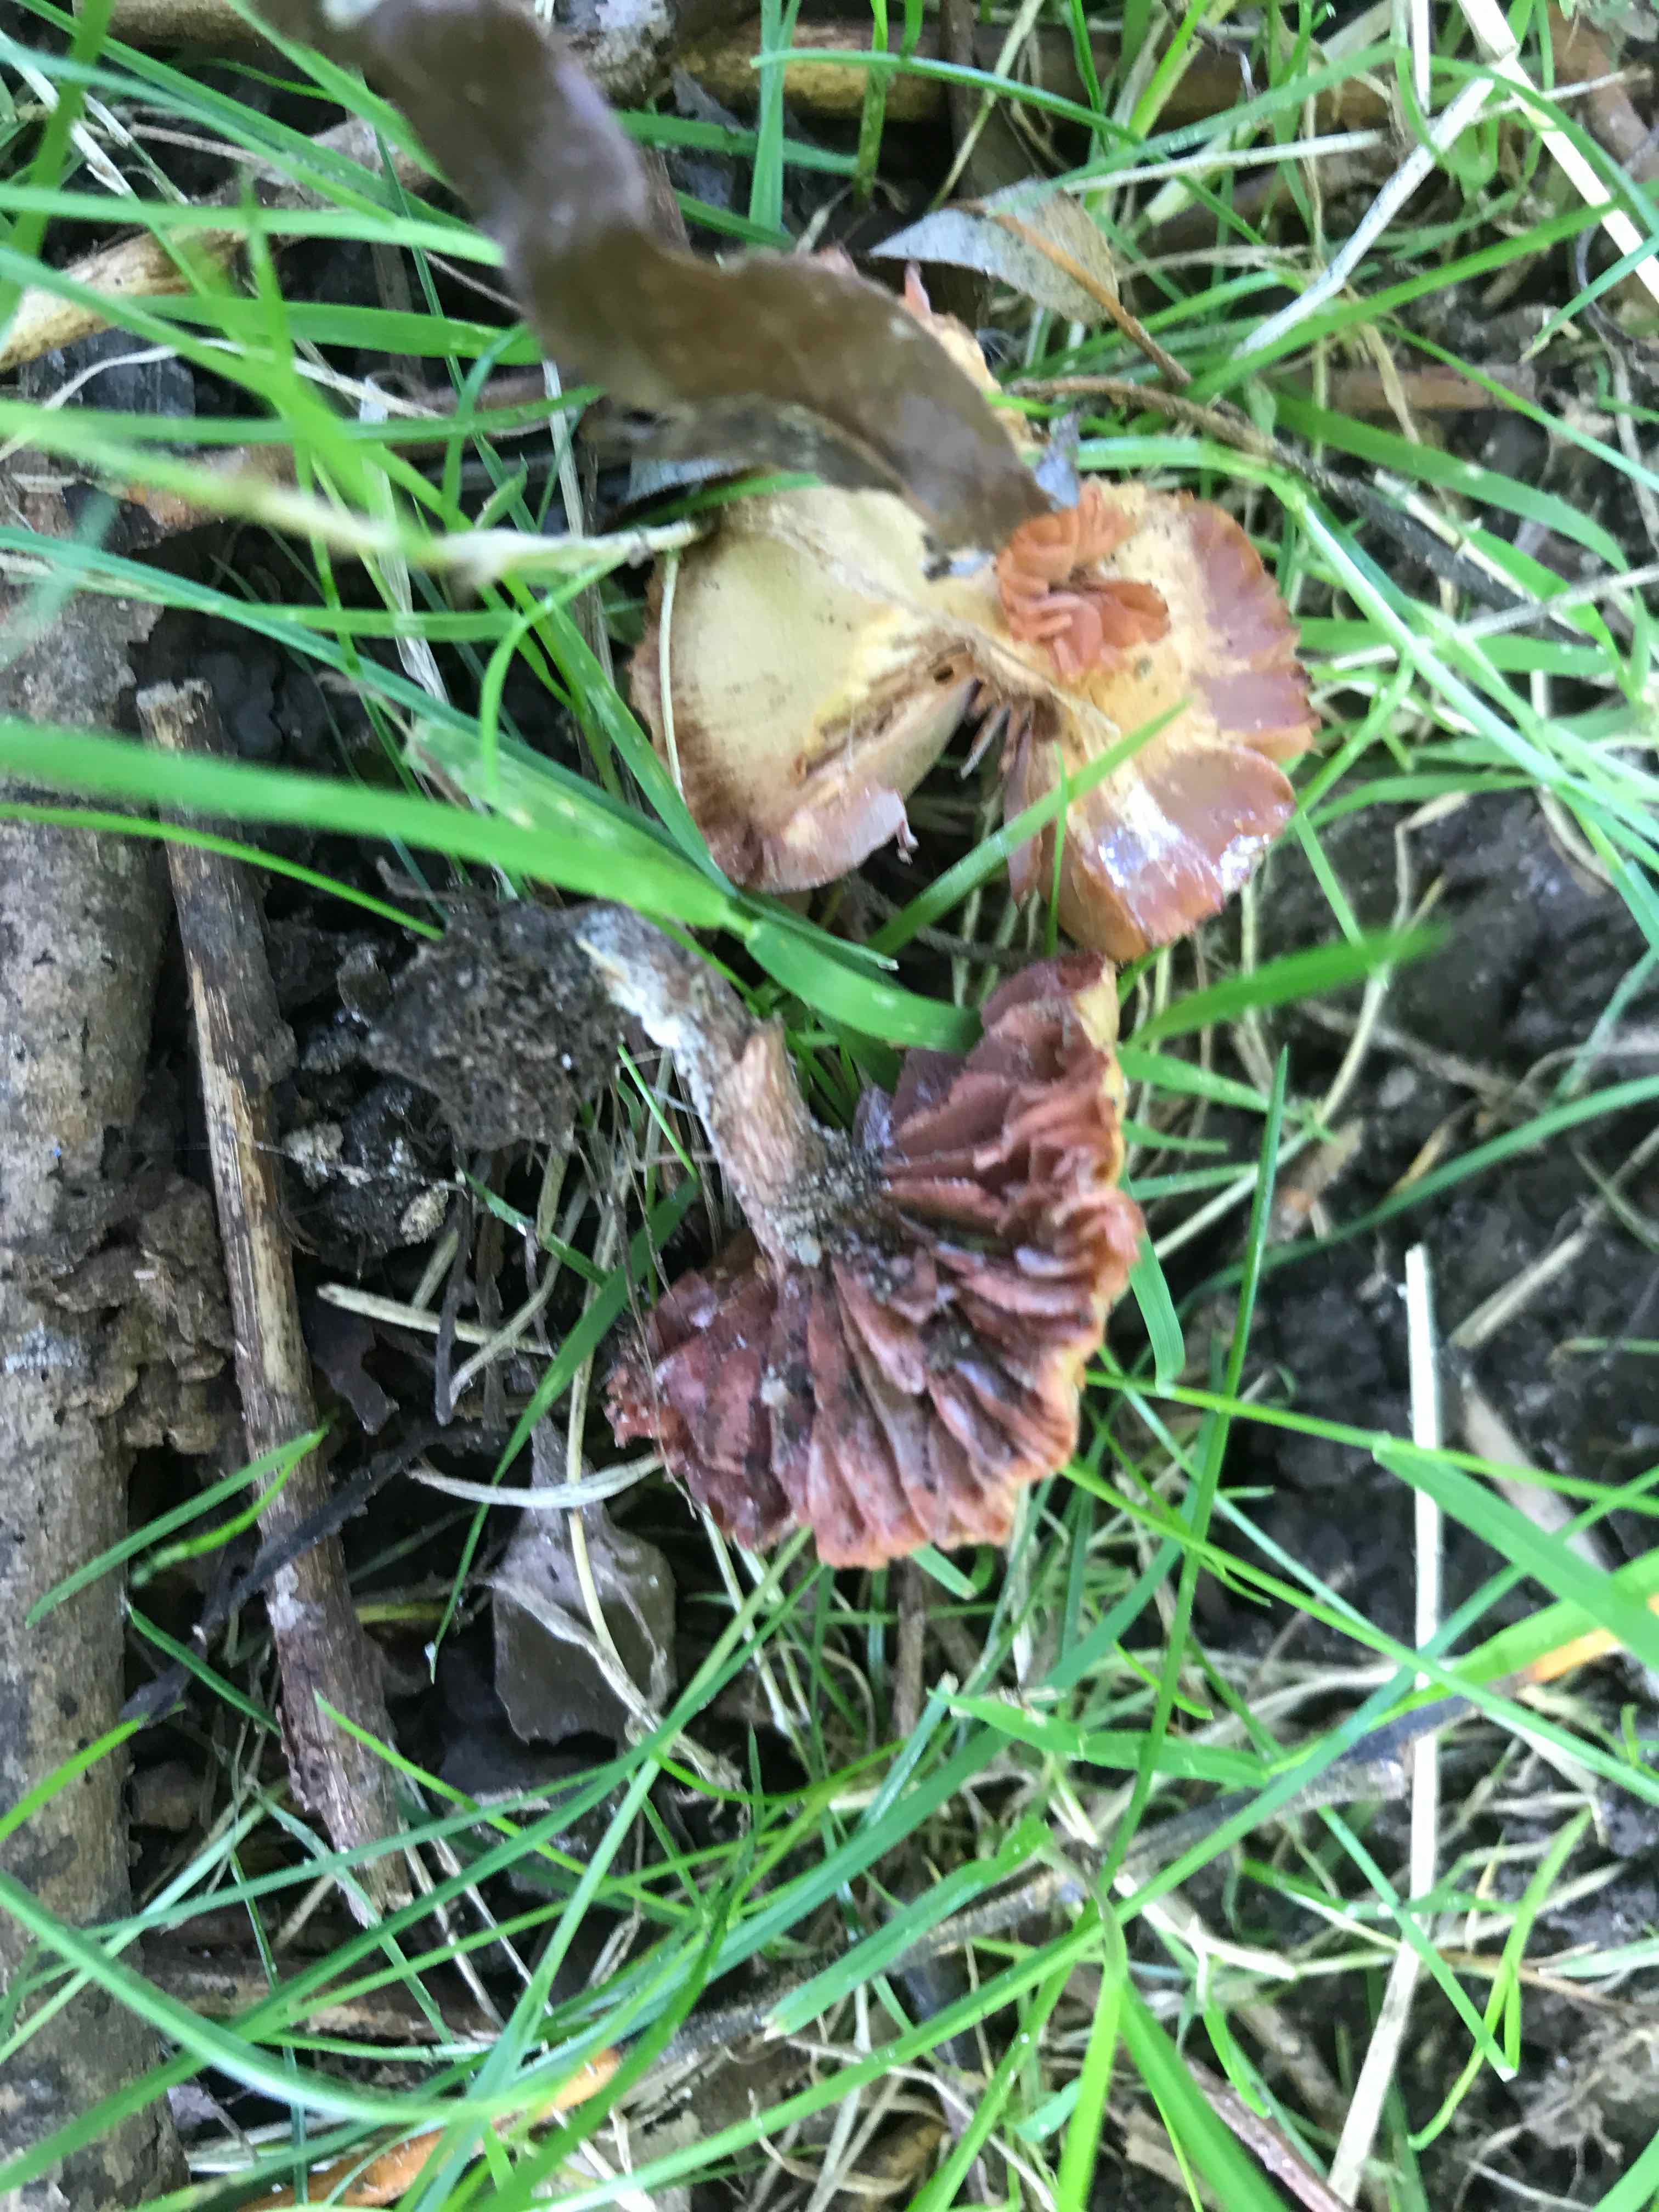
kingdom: Fungi
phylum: Basidiomycota
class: Agaricomycetes
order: Agaricales
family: Hydnangiaceae
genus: Laccaria
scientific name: Laccaria laccata
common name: rød ametysthat
